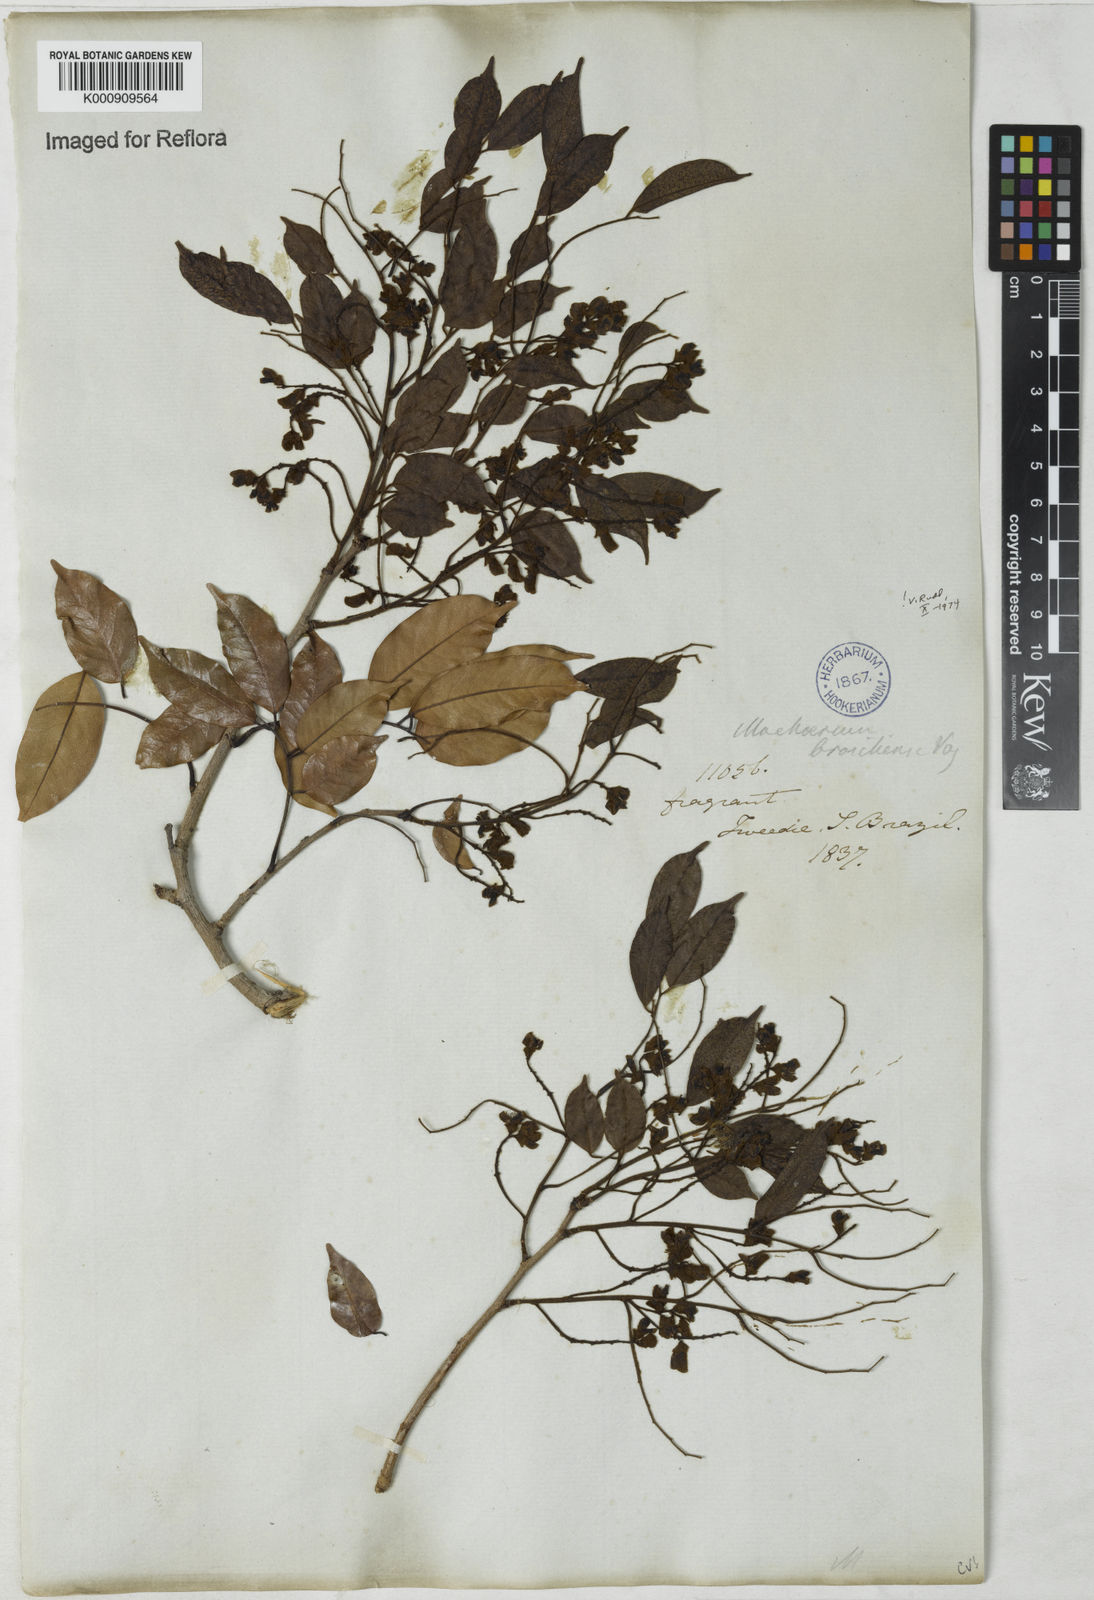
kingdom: Plantae
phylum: Tracheophyta
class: Magnoliopsida
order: Fabales
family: Fabaceae
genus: Machaerium
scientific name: Machaerium brasiliense
